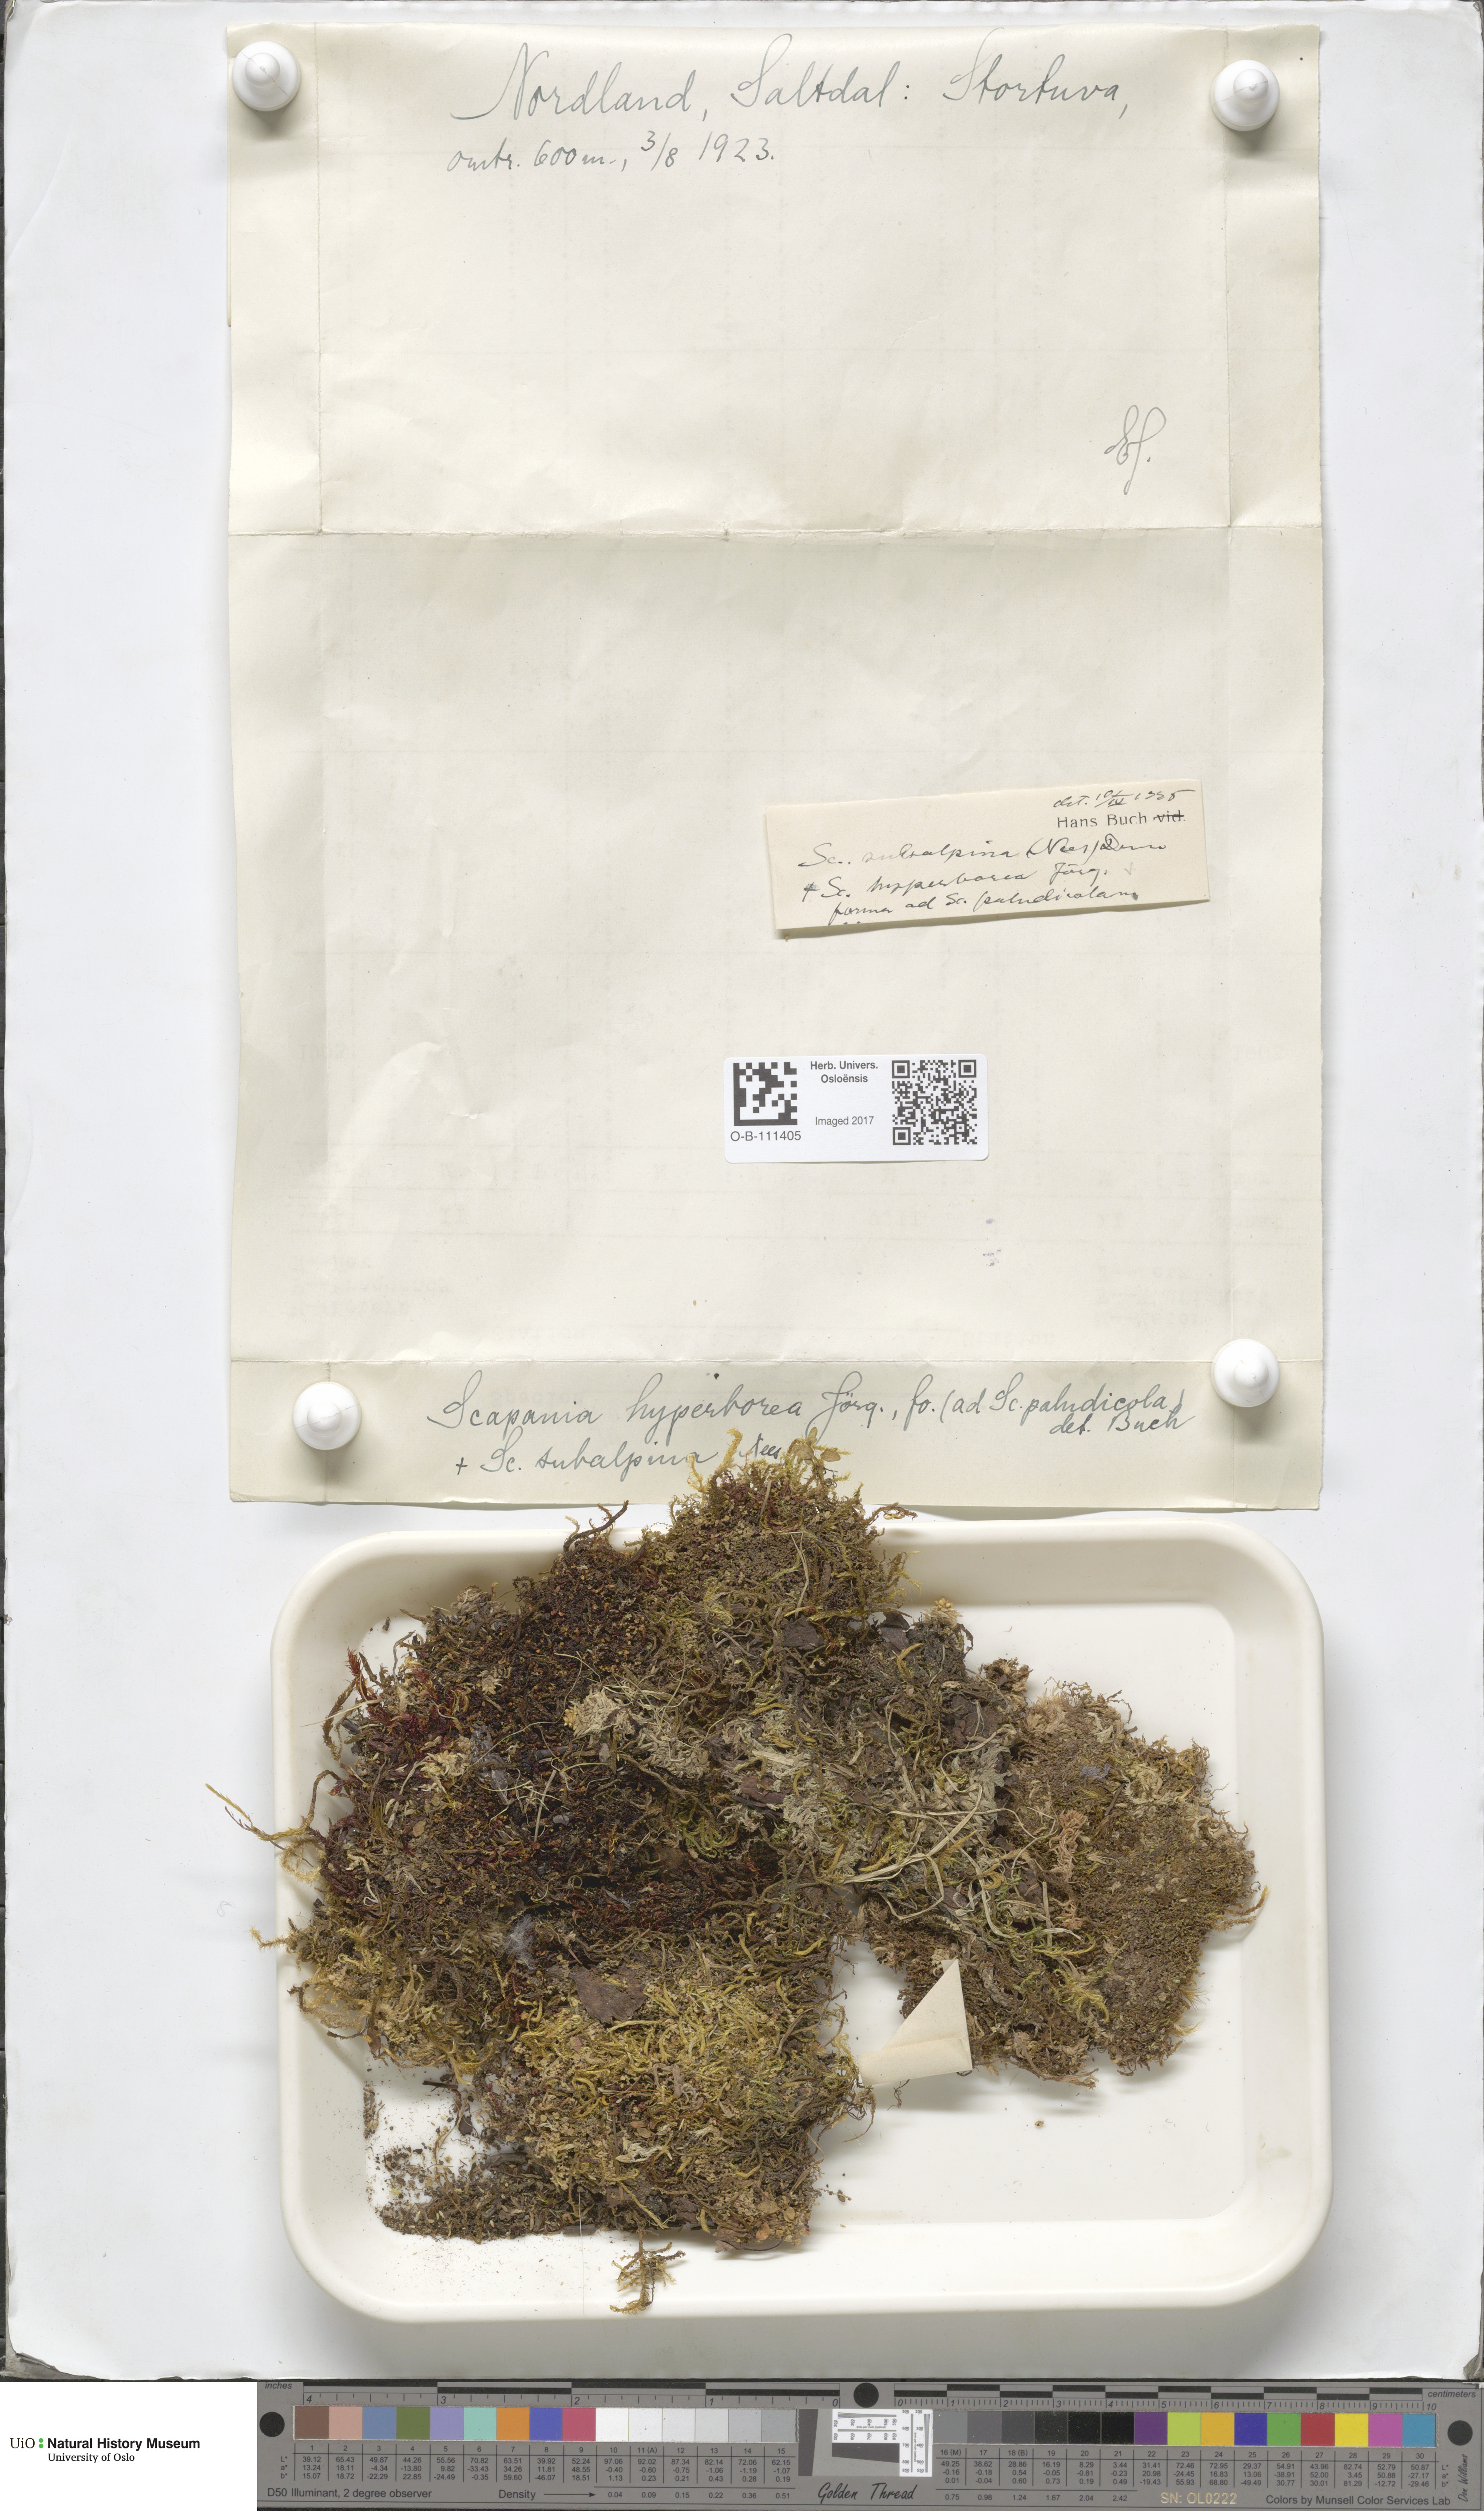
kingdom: Plantae
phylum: Marchantiophyta
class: Jungermanniopsida
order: Jungermanniales
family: Scapaniaceae
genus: Scapania
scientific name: Scapania hyperborea
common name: Northern earwort
